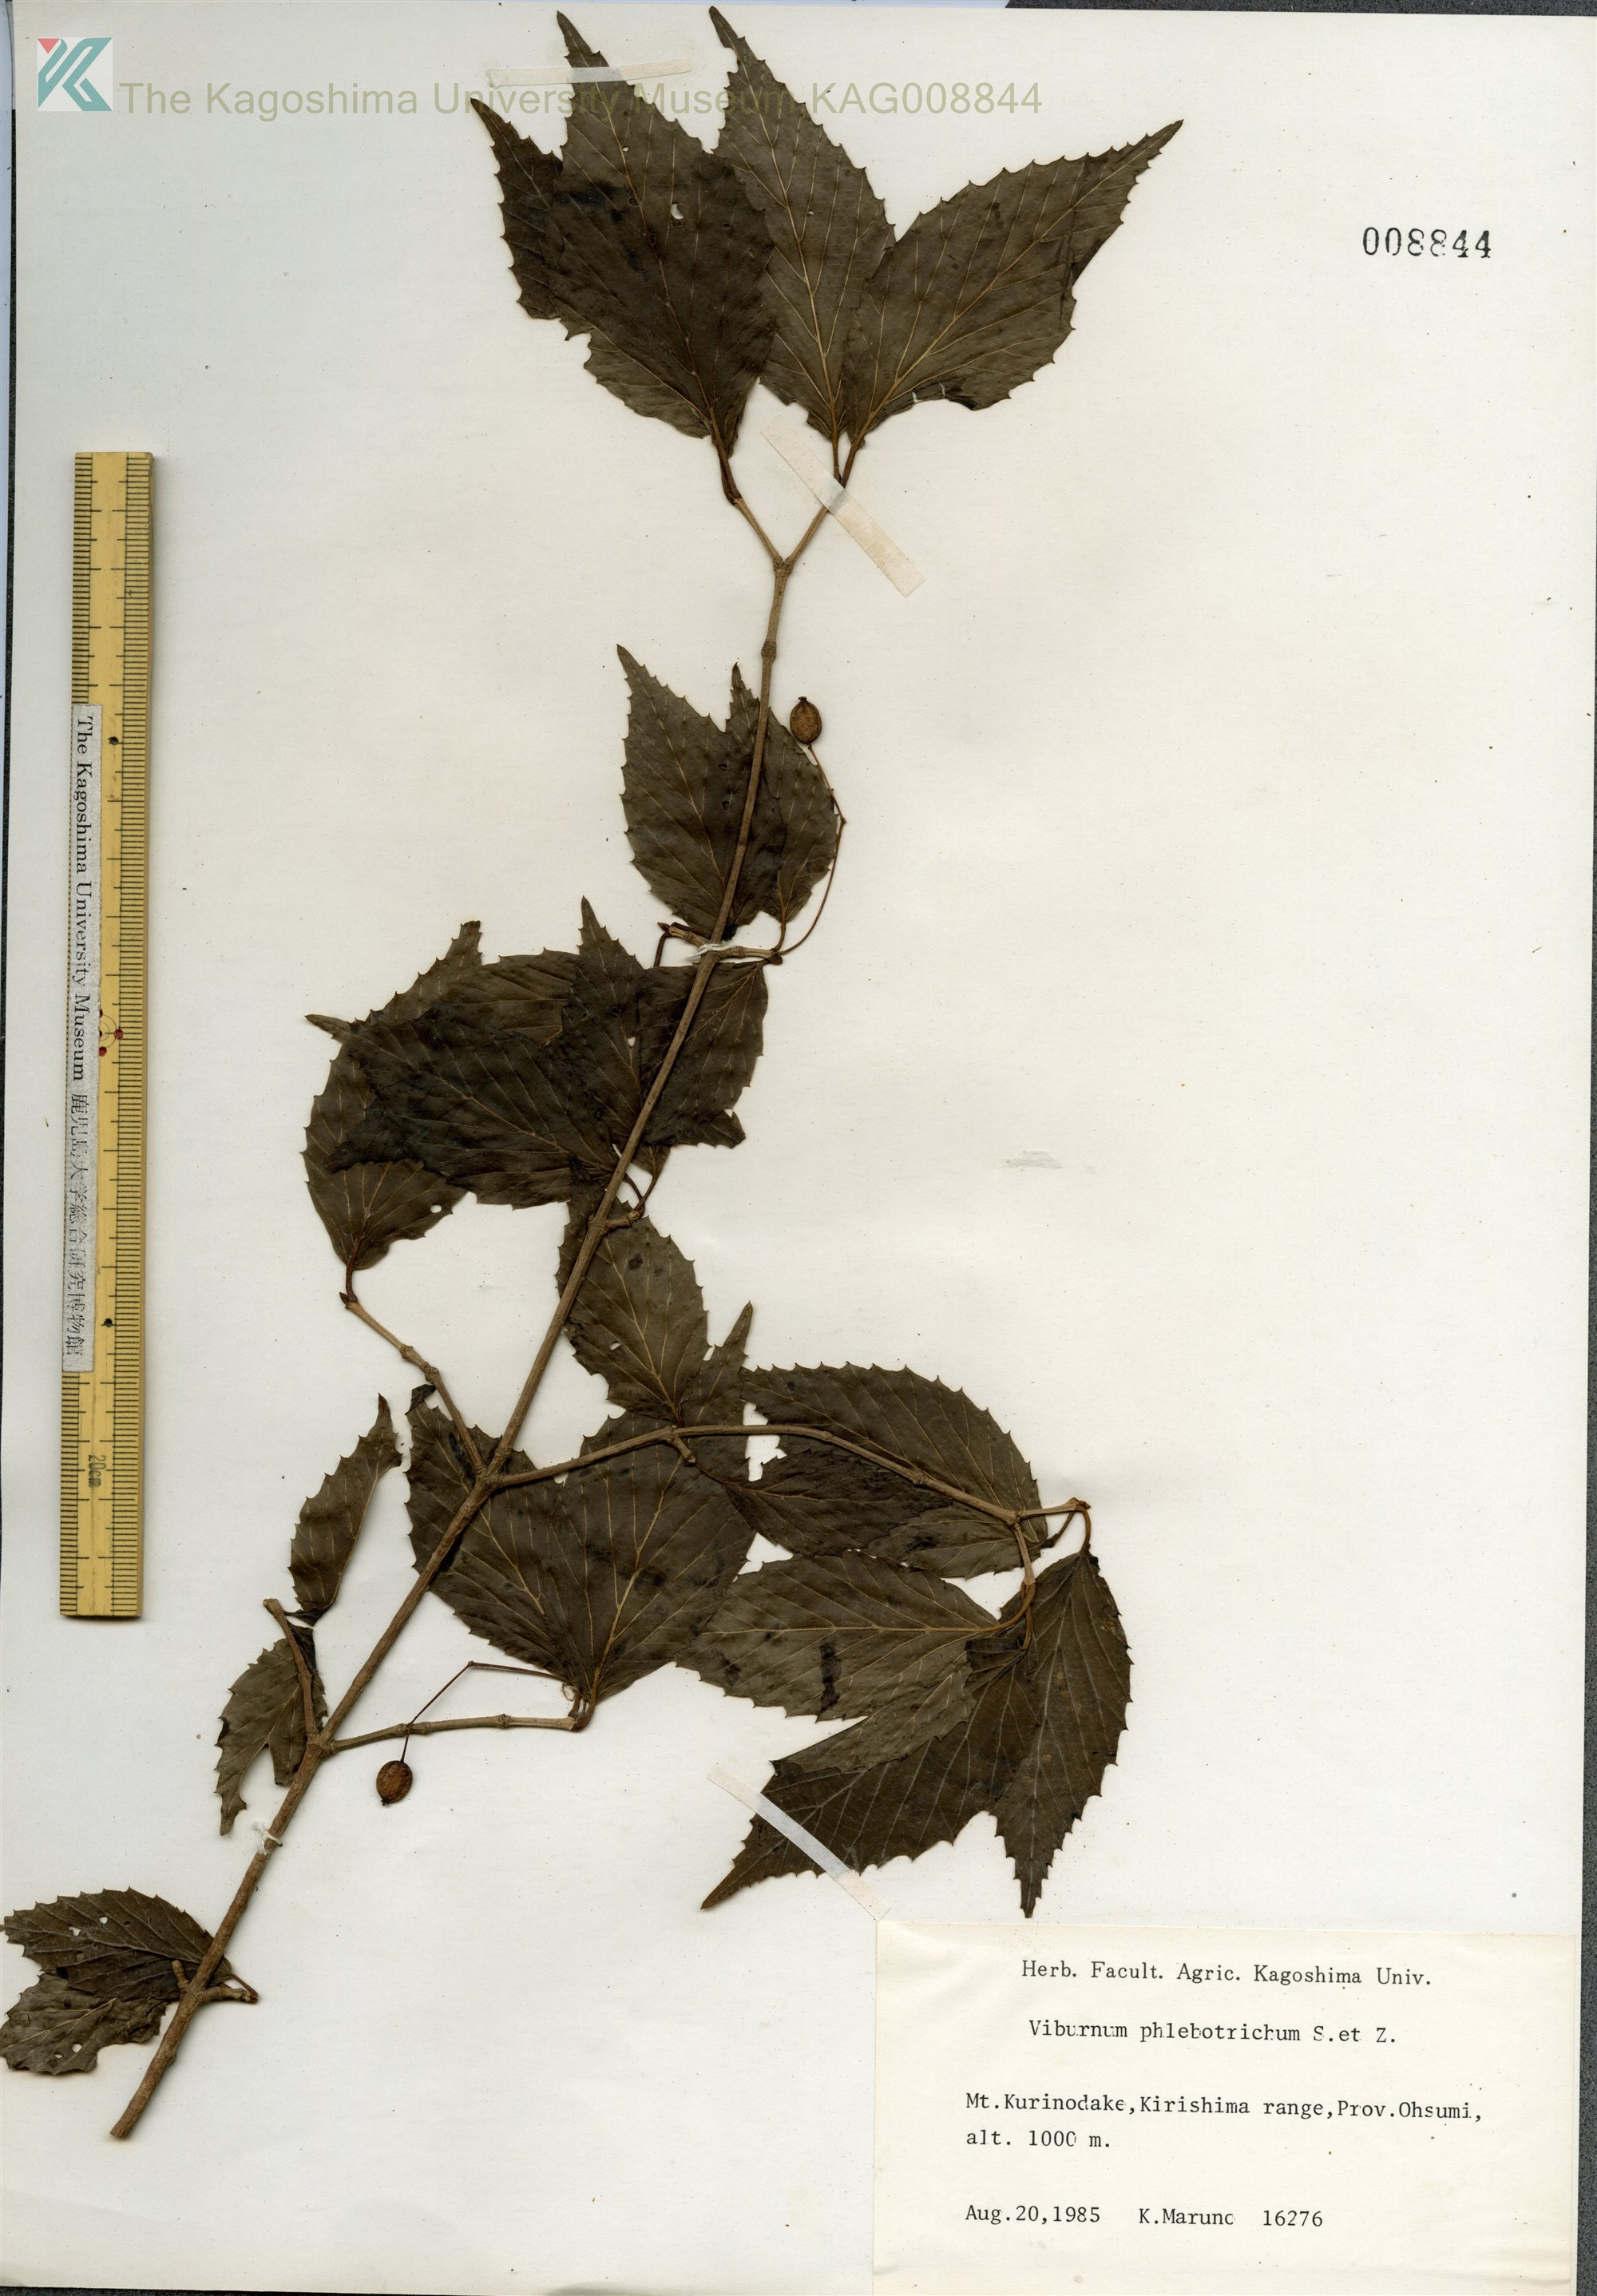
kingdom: Plantae
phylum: Tracheophyta
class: Magnoliopsida
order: Dipsacales
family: Viburnaceae
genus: Viburnum
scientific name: Viburnum phlebotrichum
